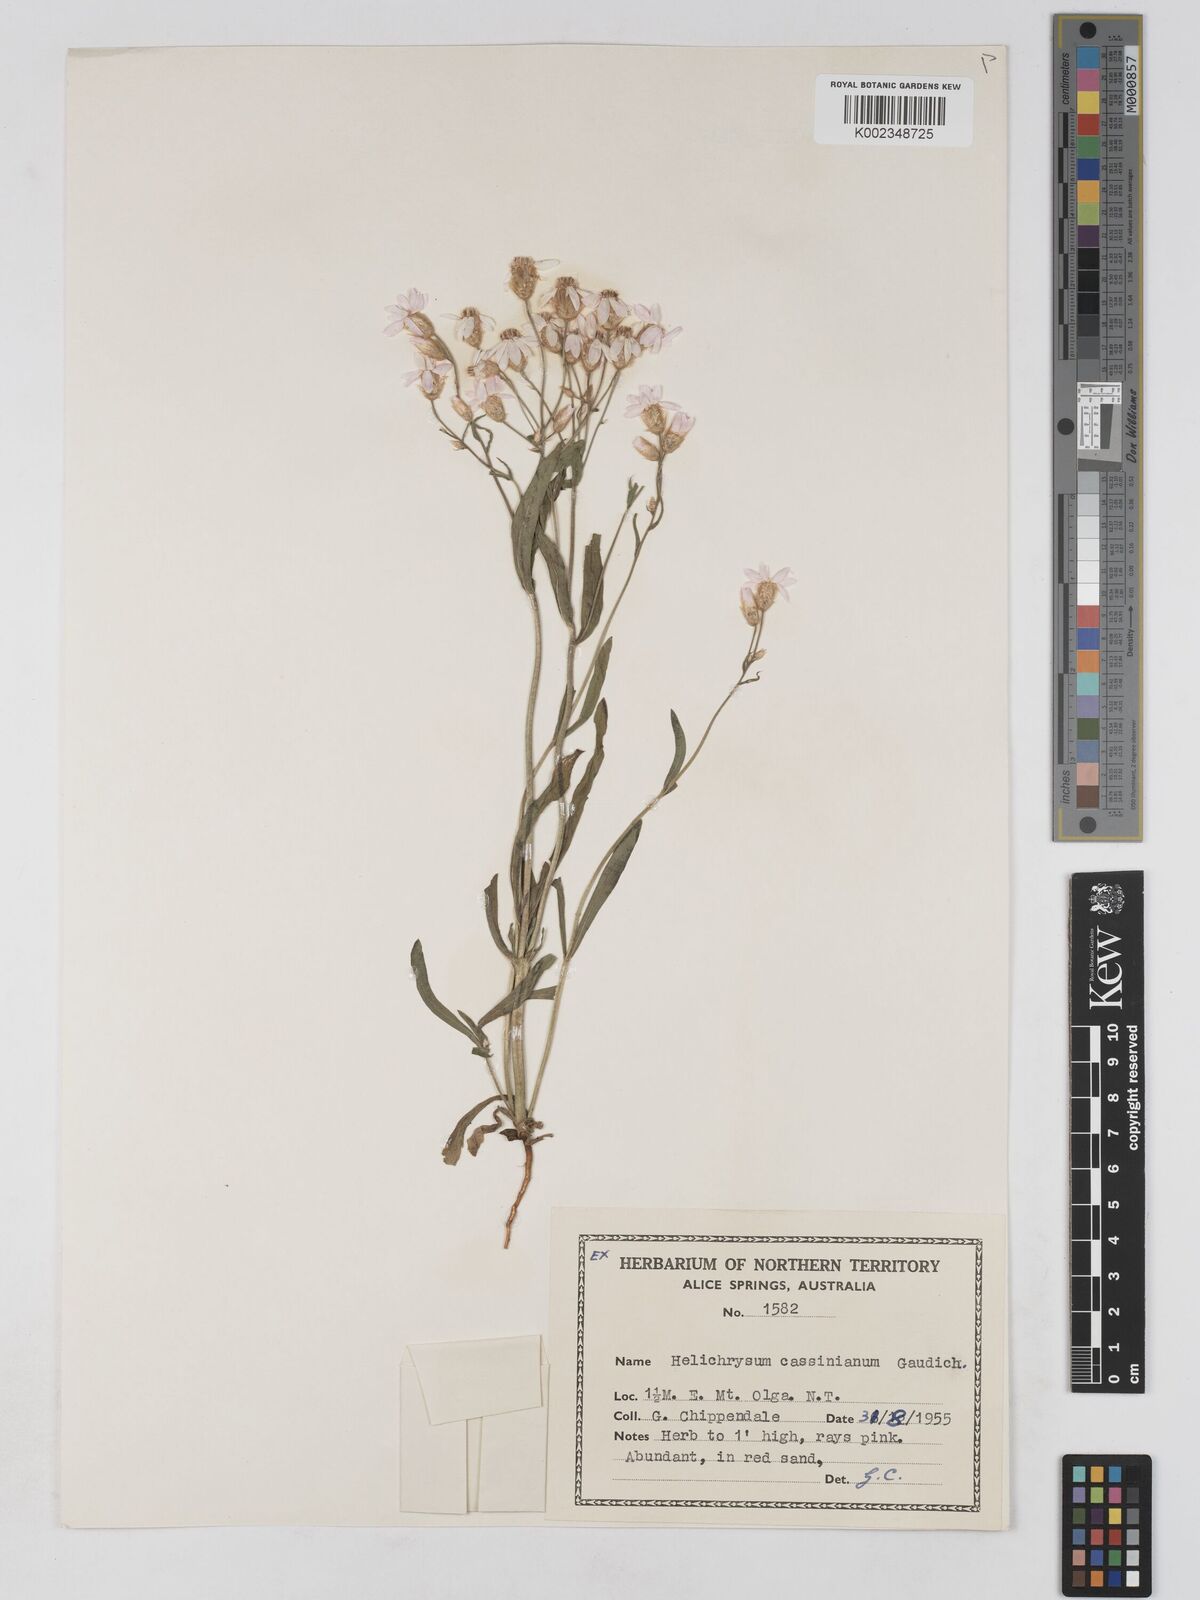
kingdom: Plantae
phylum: Tracheophyta
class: Magnoliopsida
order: Asterales
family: Asteraceae
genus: Schoenia
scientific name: Schoenia cassiniana
